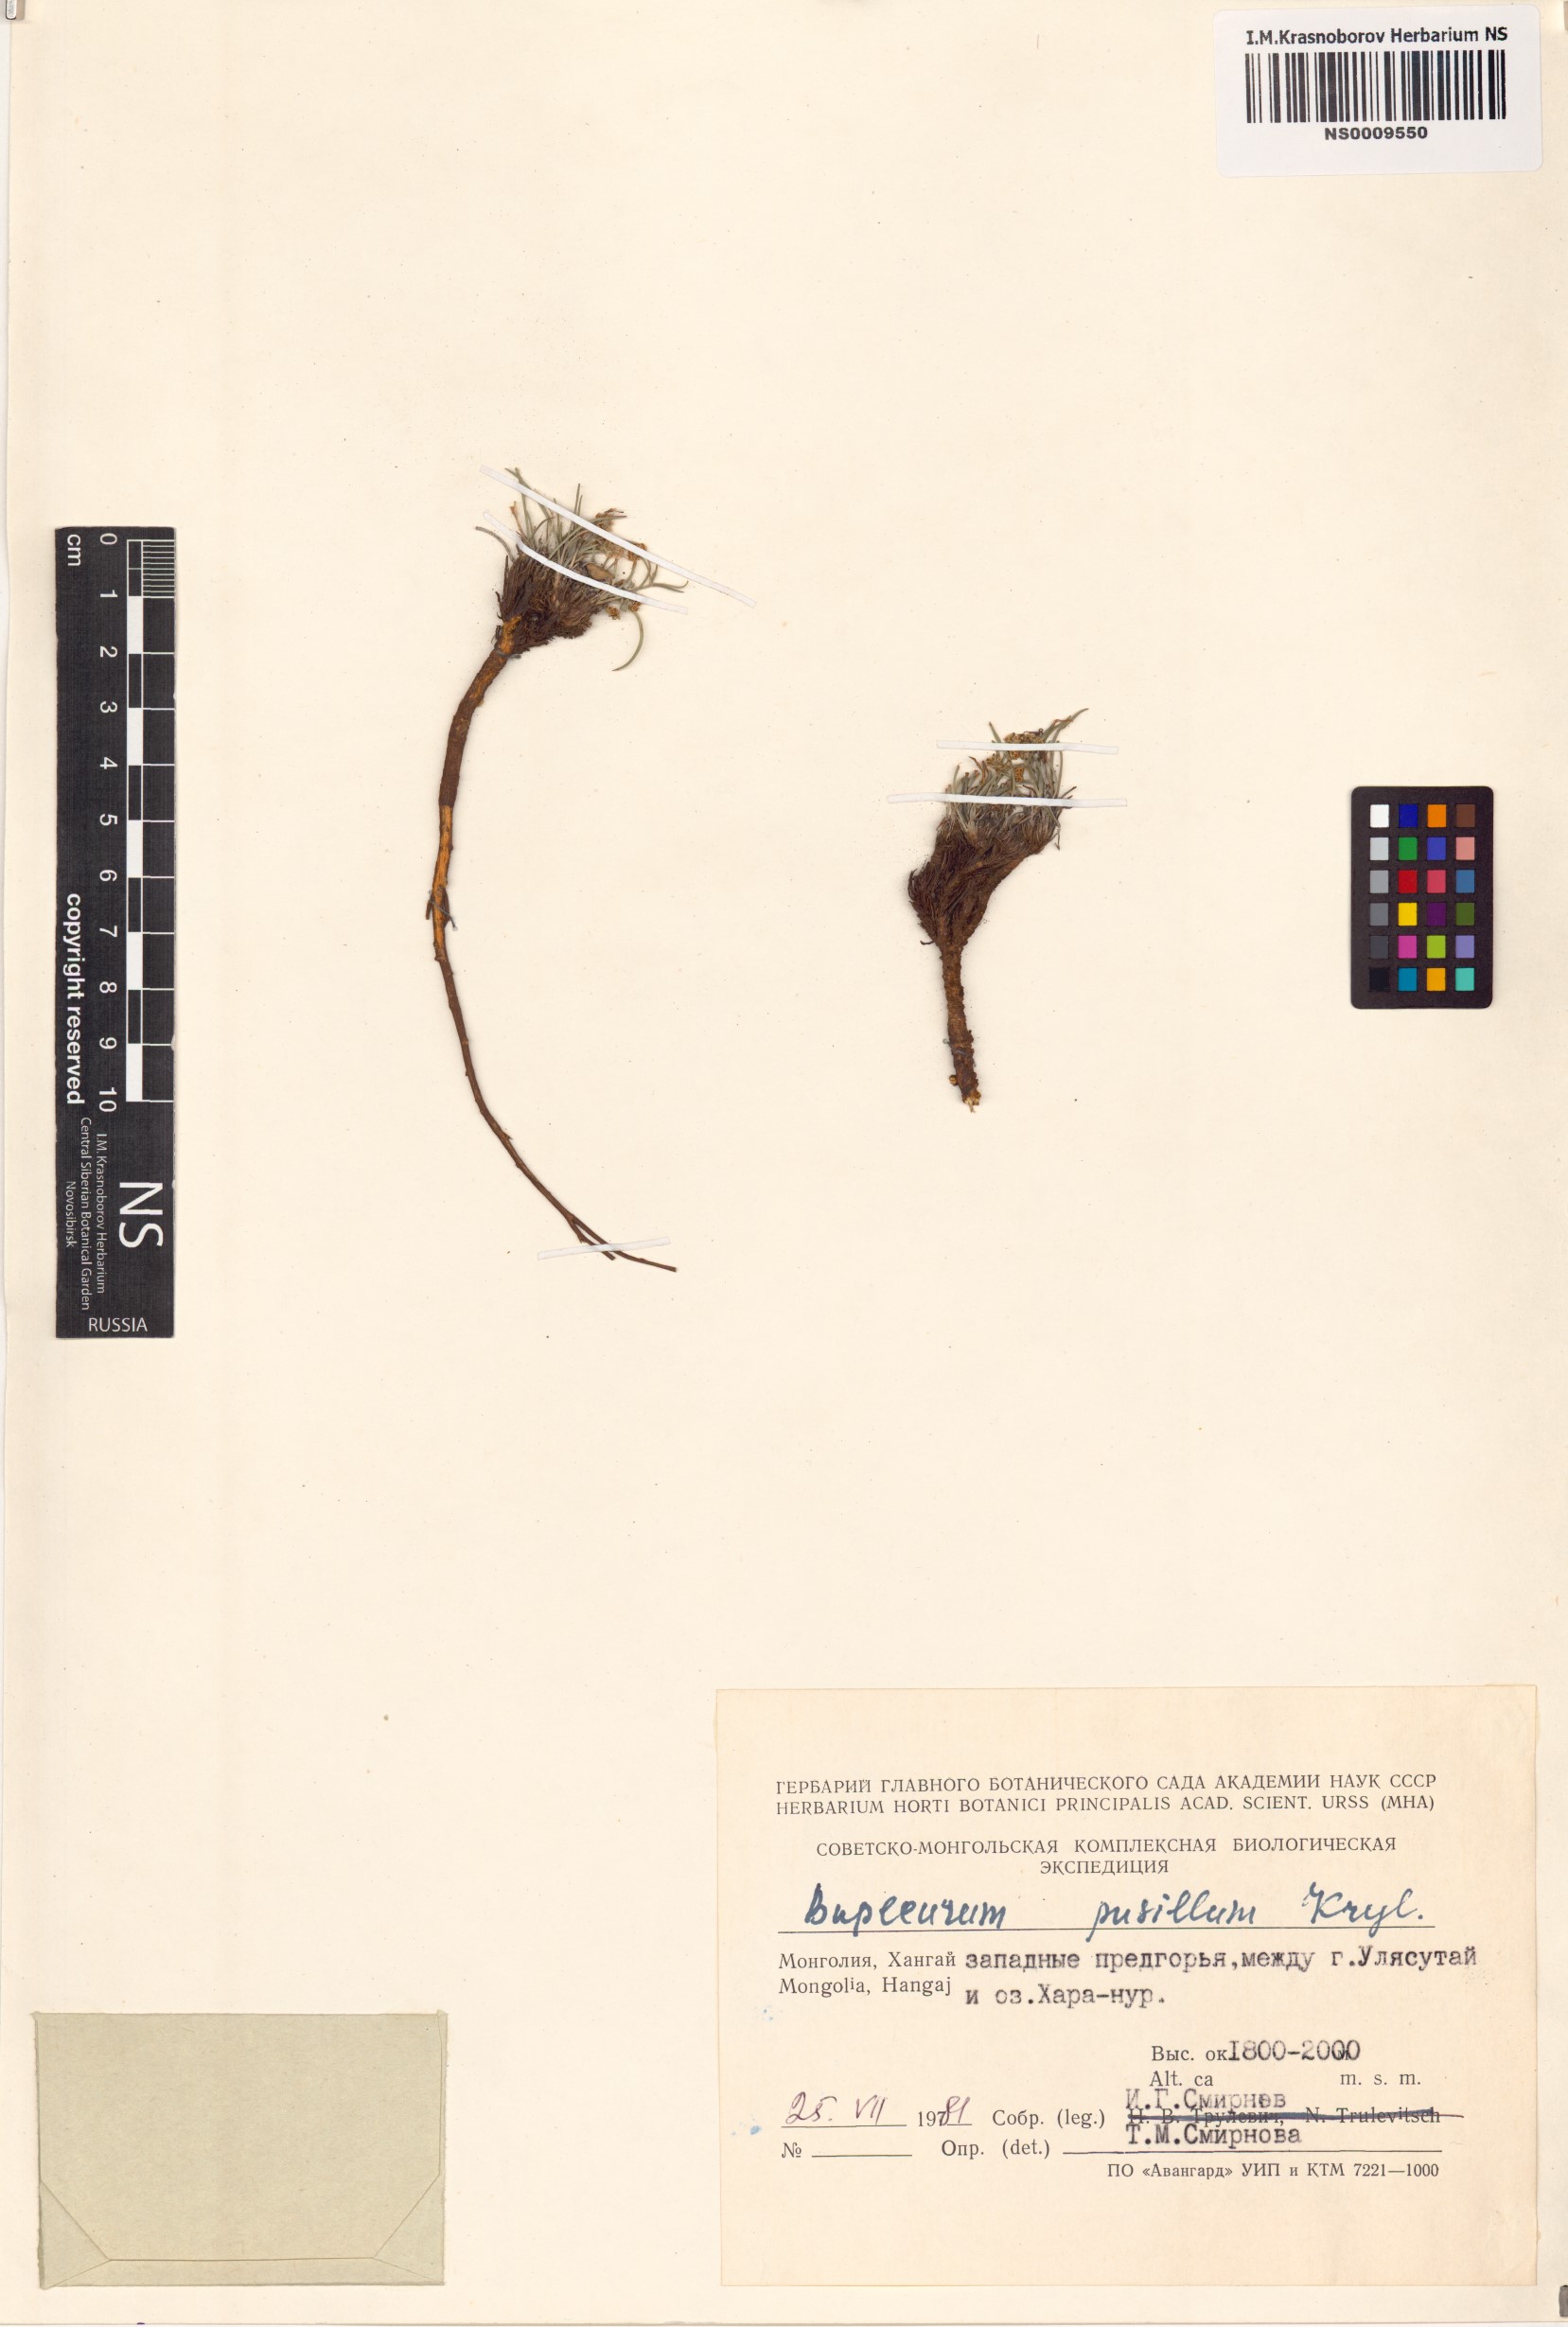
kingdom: Plantae
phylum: Tracheophyta
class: Magnoliopsida
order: Apiales
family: Apiaceae
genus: Bupleurum
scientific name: Bupleurum bicaule
